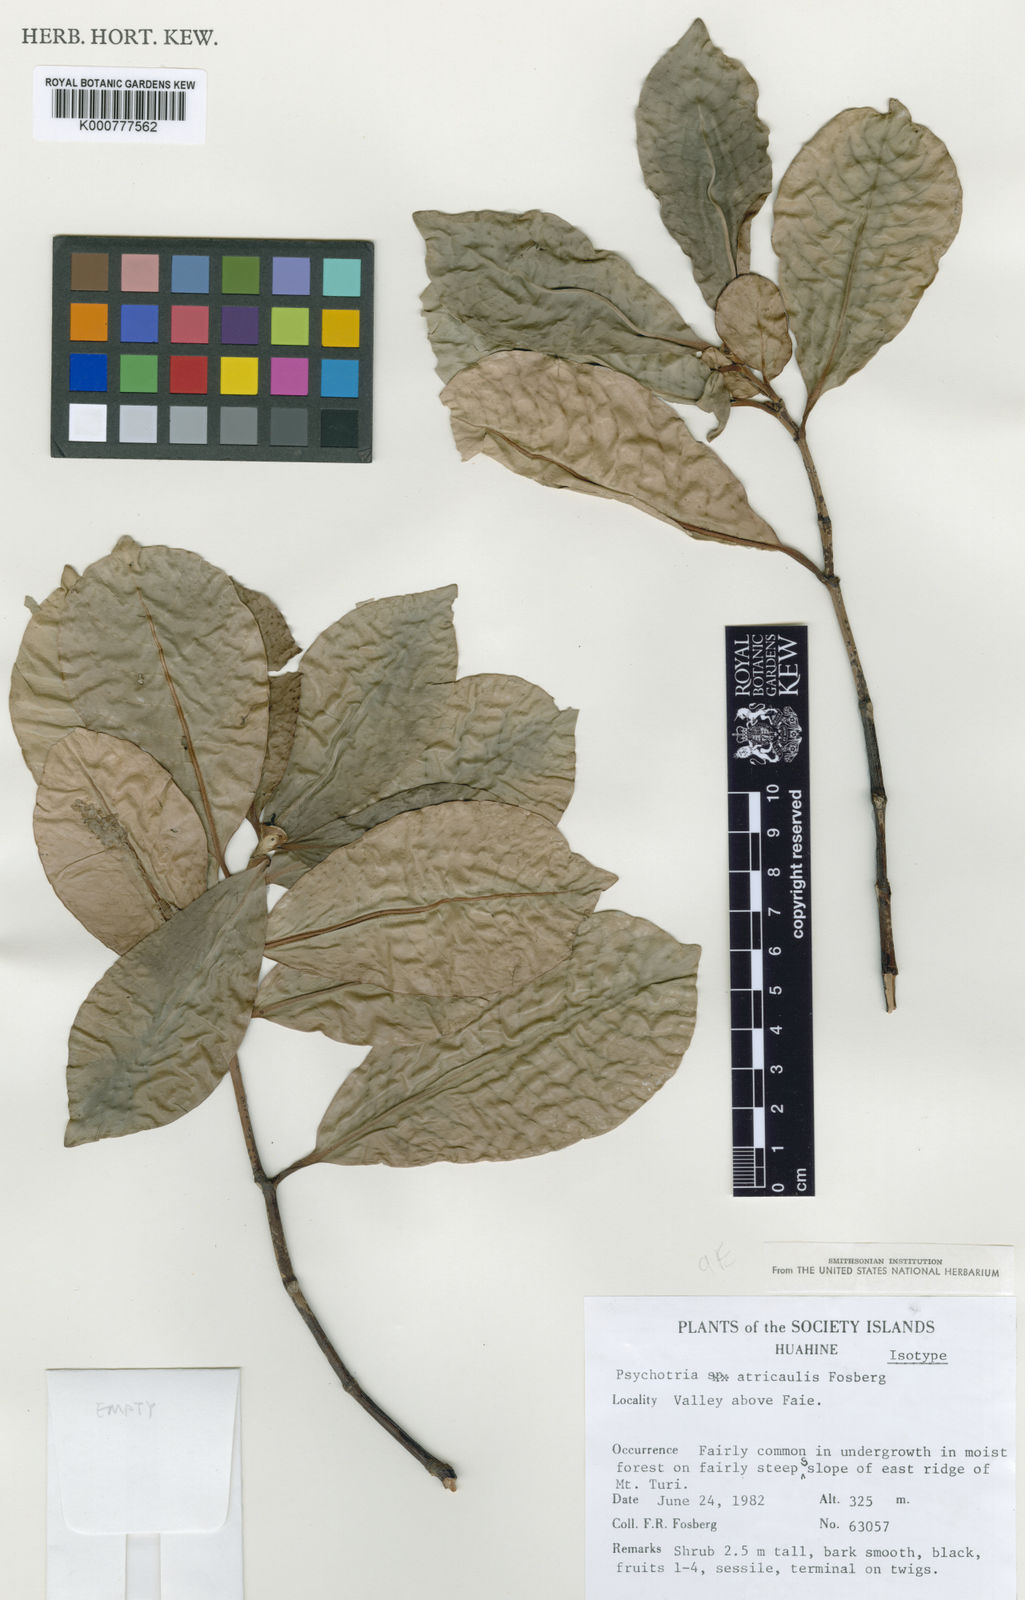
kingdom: Plantae
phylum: Tracheophyta
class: Magnoliopsida
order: Gentianales
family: Rubiaceae
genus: Psychotria
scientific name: Psychotria atricaulis
